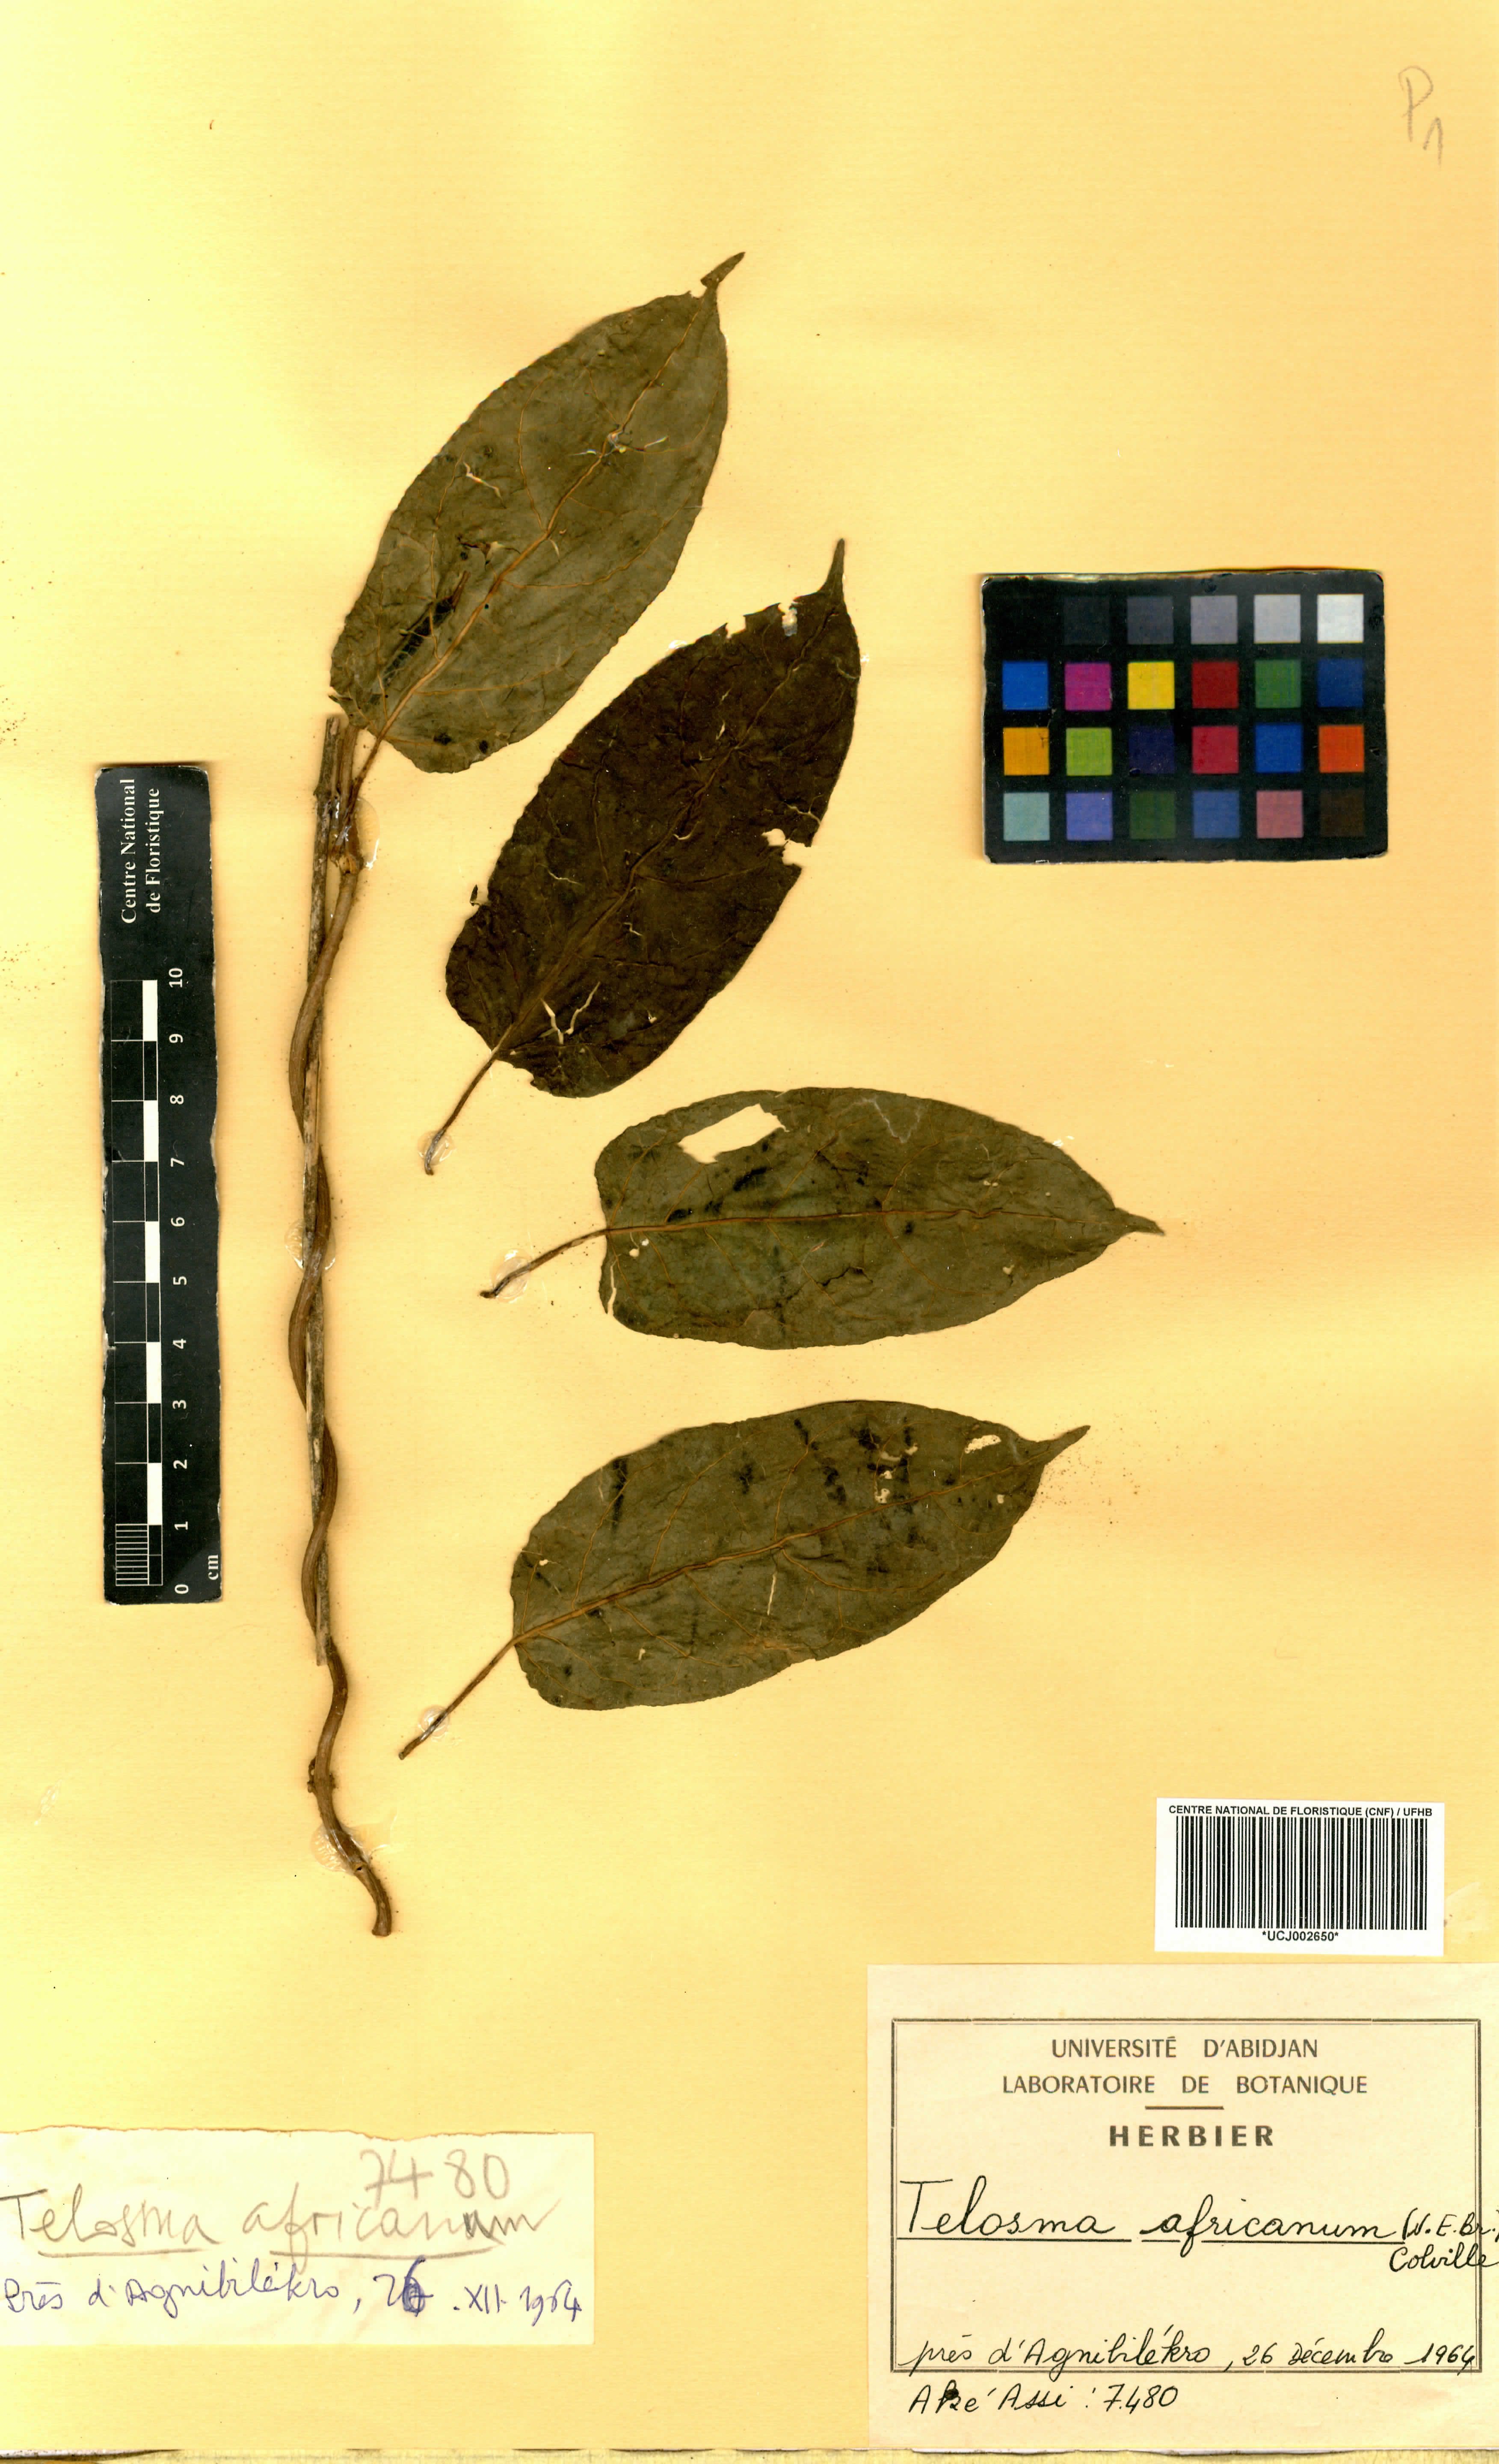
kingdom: Plantae
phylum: Tracheophyta
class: Magnoliopsida
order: Gentianales
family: Apocynaceae
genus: Telosma
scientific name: Telosma africana
